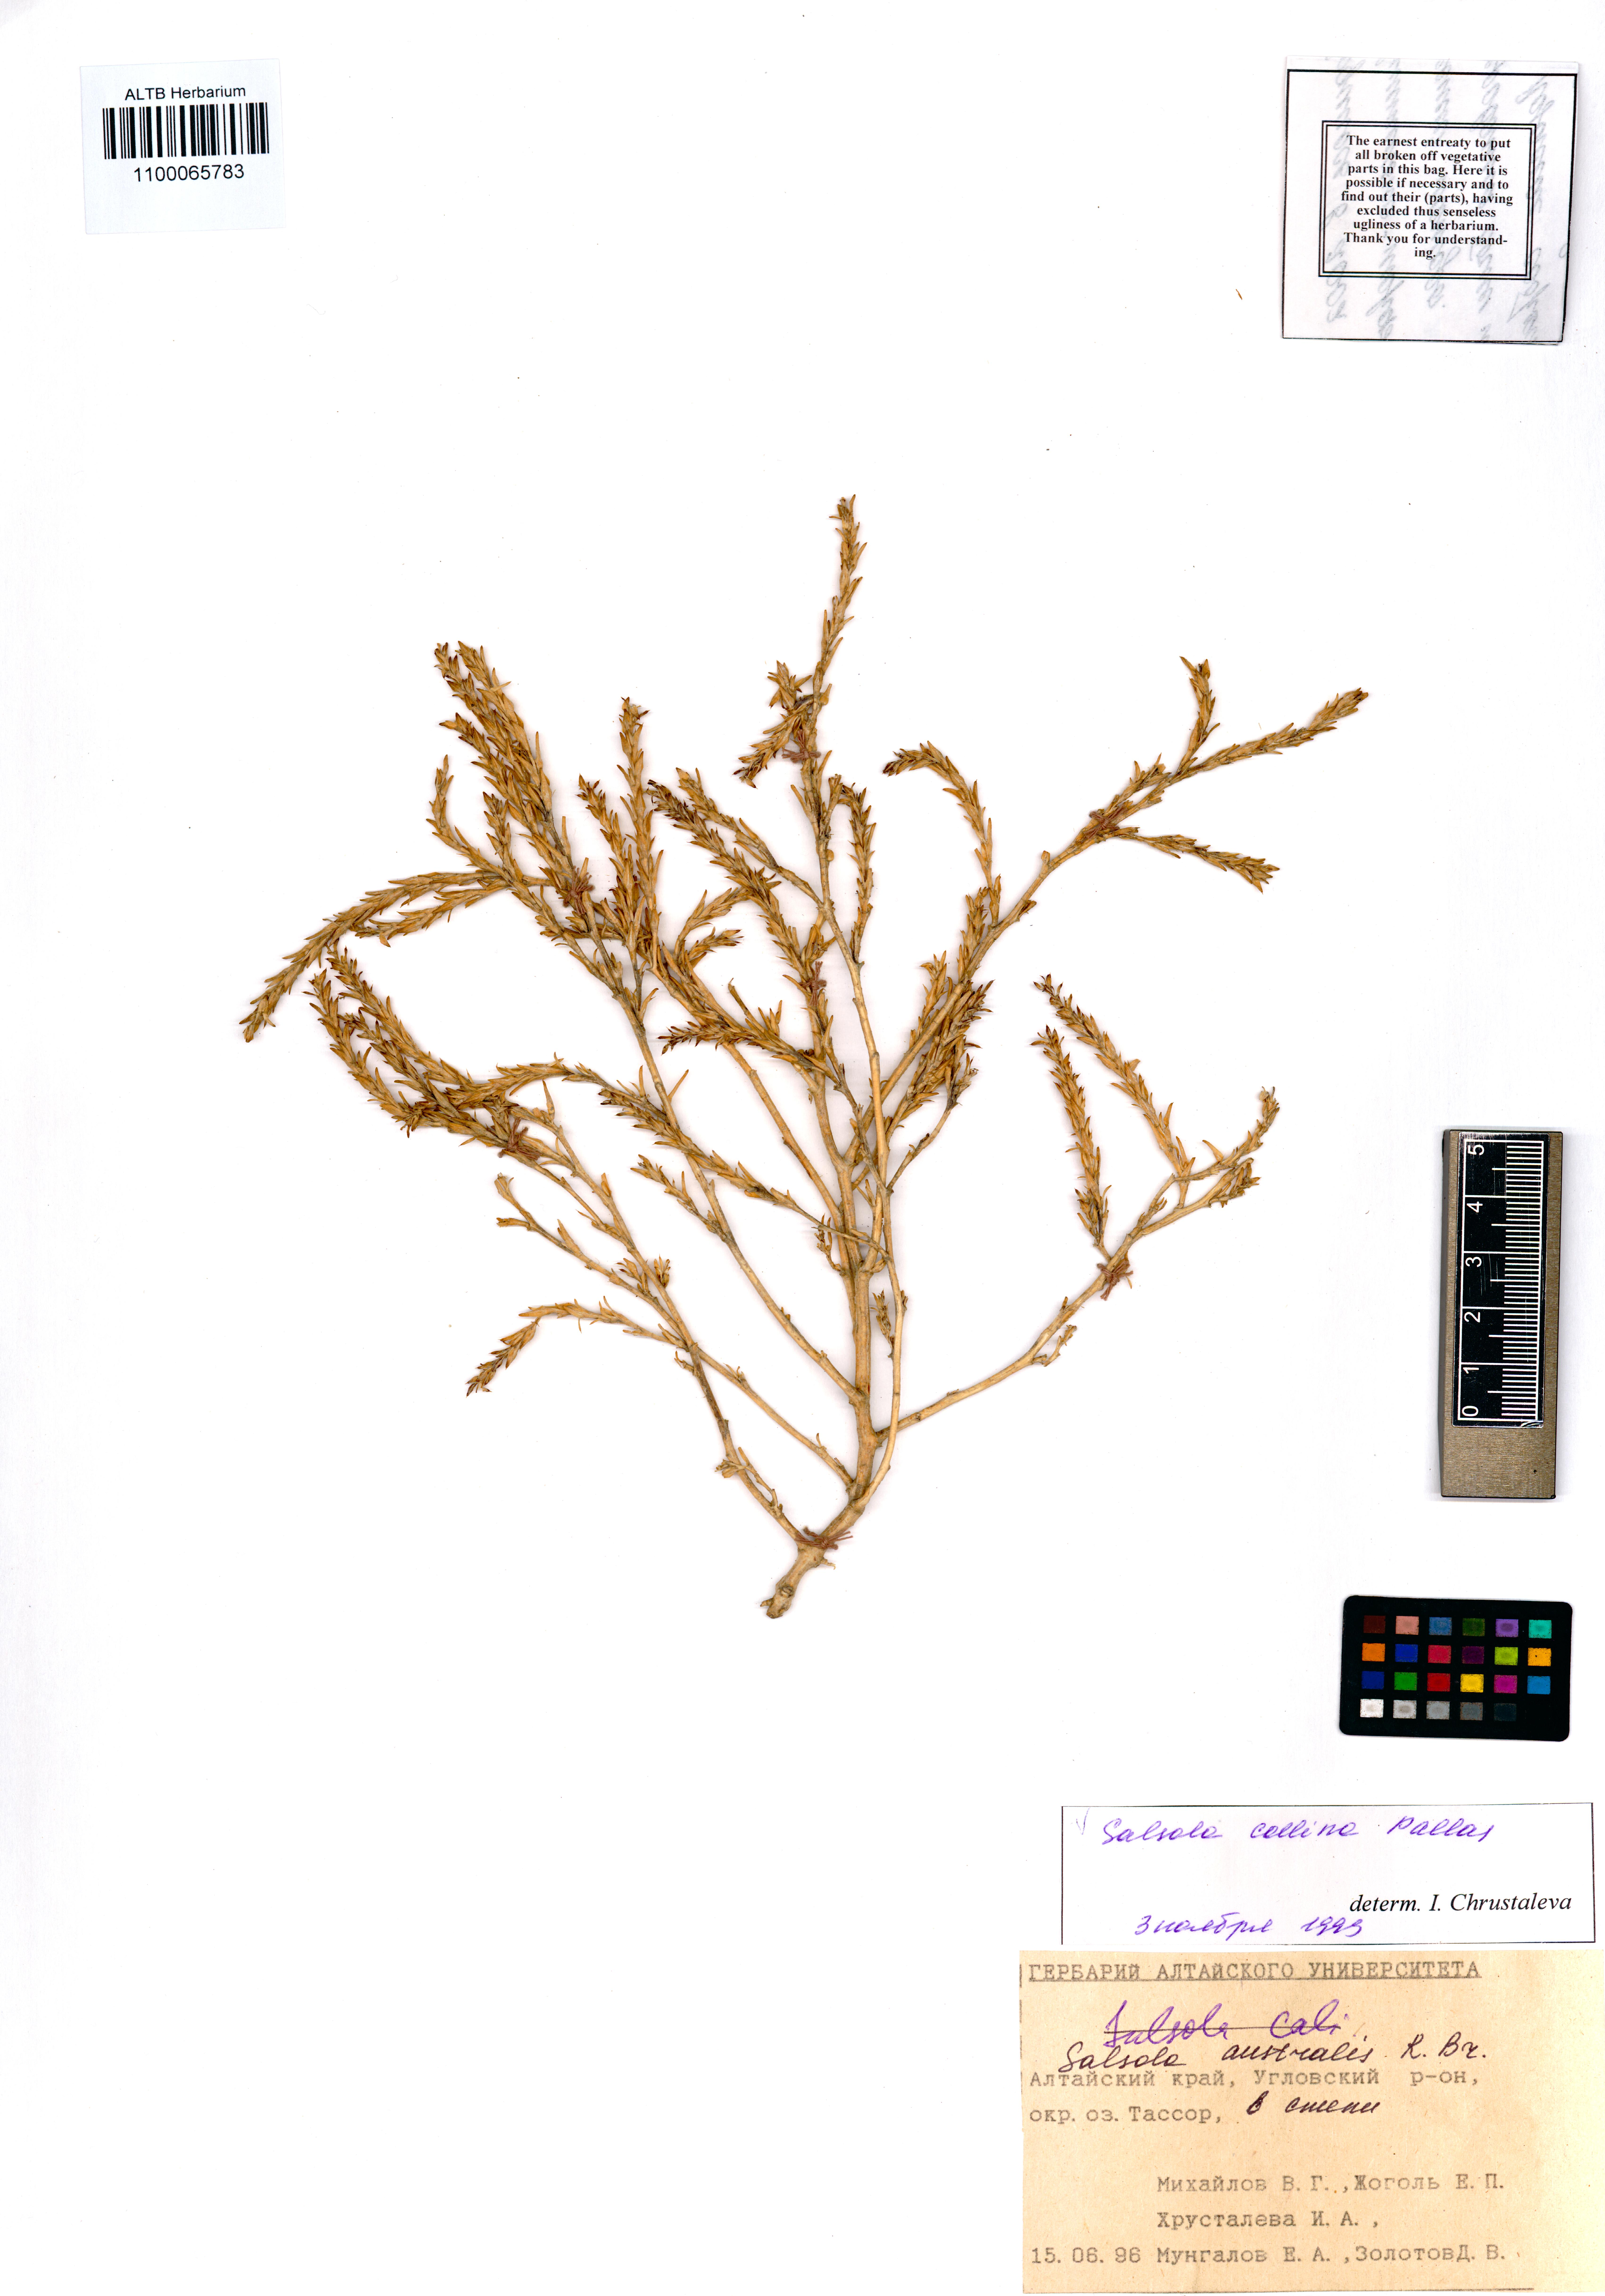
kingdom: Plantae
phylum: Tracheophyta
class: Magnoliopsida
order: Caryophyllales
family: Amaranthaceae
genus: Salsola
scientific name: Salsola collina
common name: Tumbleweed
